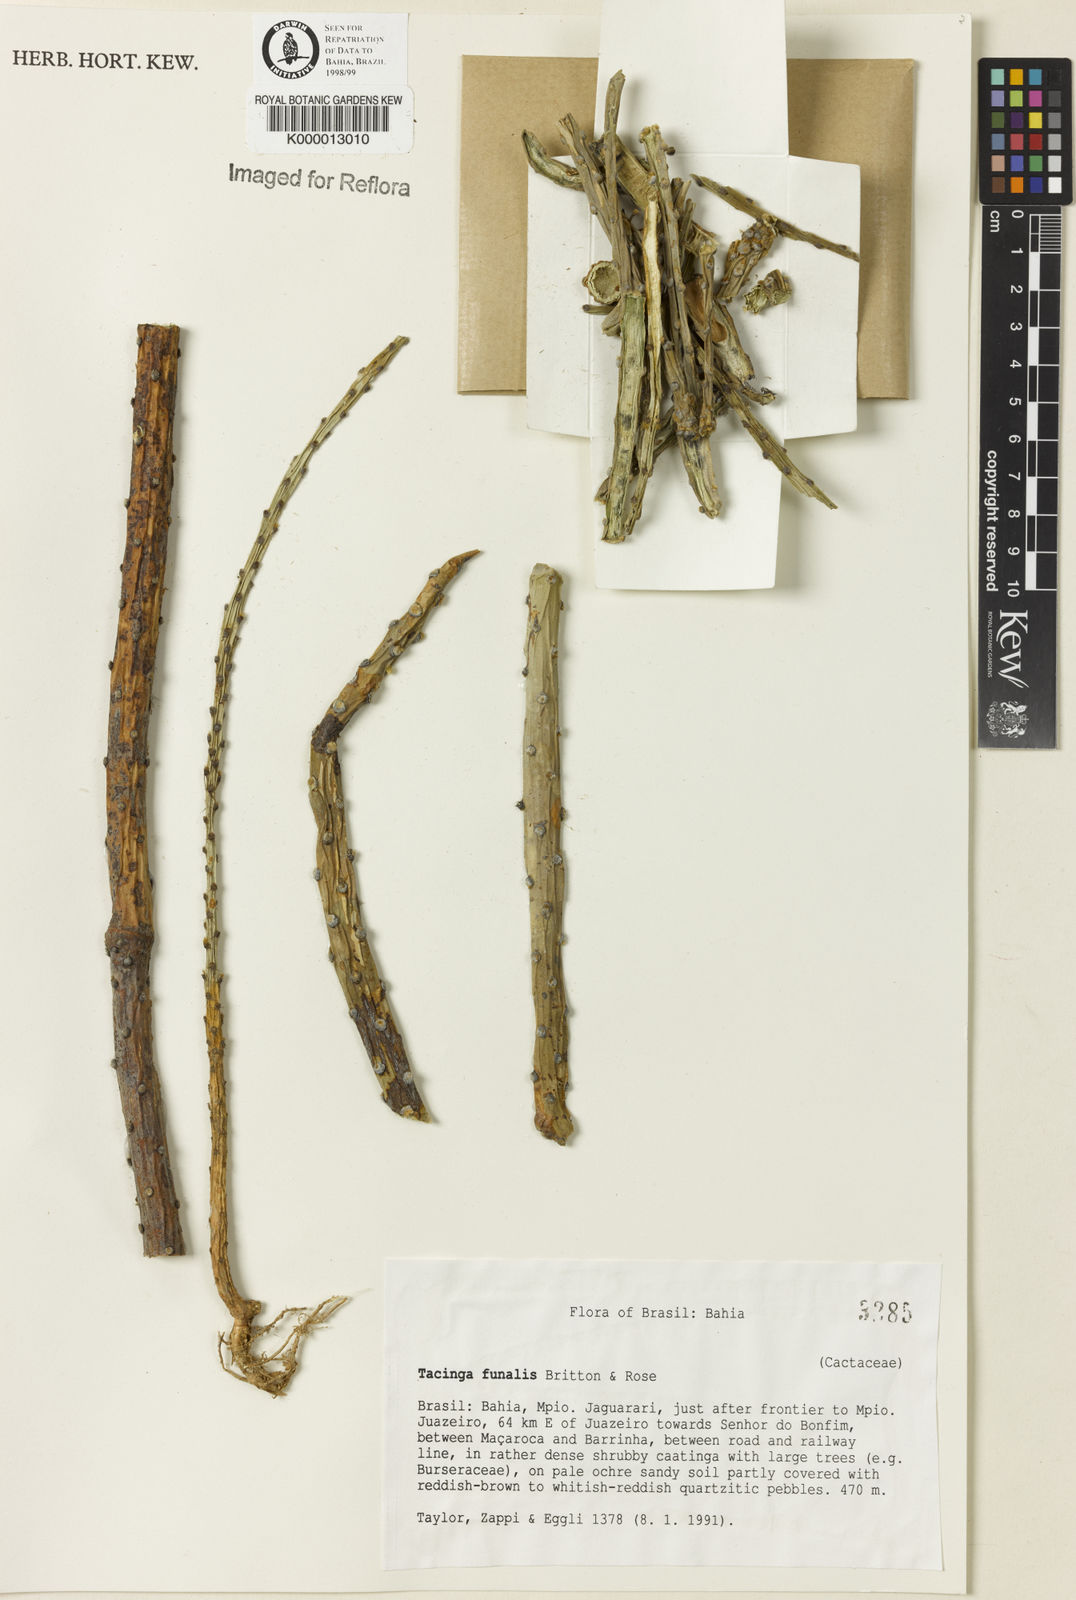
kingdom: Plantae
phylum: Tracheophyta
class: Magnoliopsida
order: Caryophyllales
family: Cactaceae
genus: Tacinga
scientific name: Tacinga funalis
